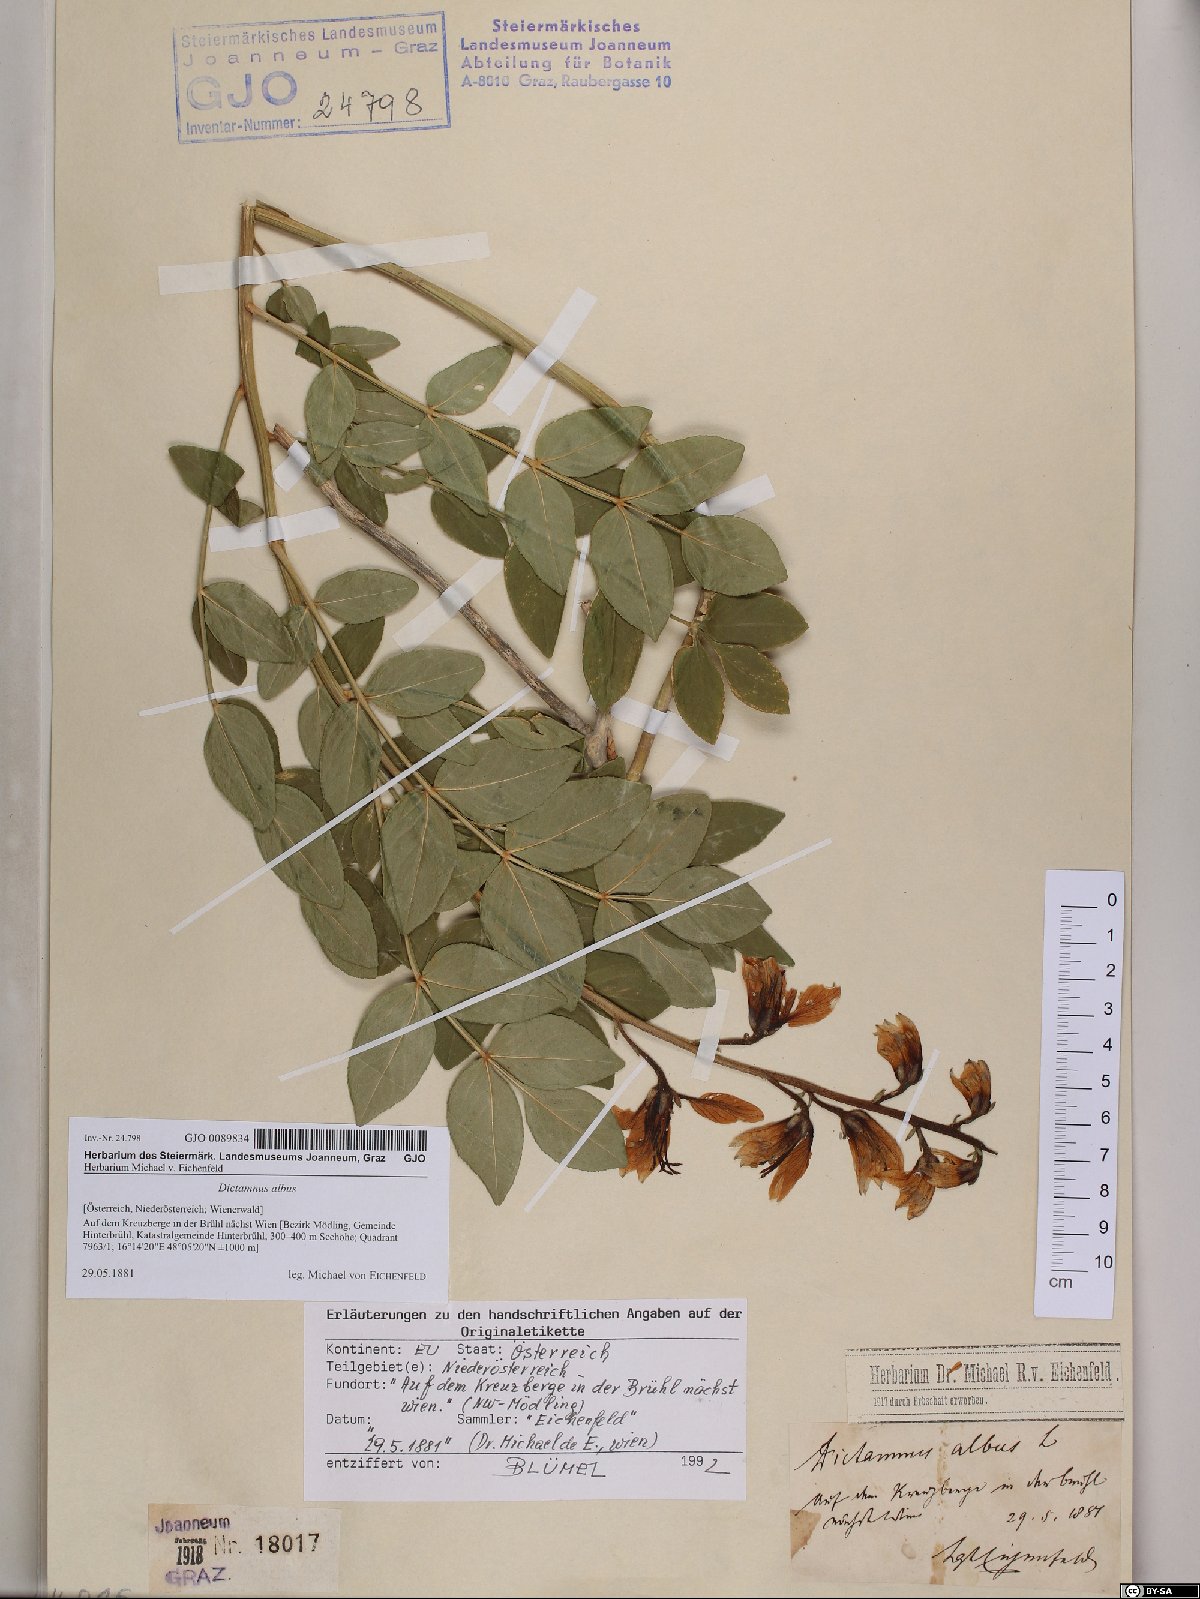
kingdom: Plantae
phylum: Tracheophyta
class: Magnoliopsida
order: Sapindales
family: Rutaceae
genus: Dictamnus
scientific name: Dictamnus albus
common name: Gasplant
